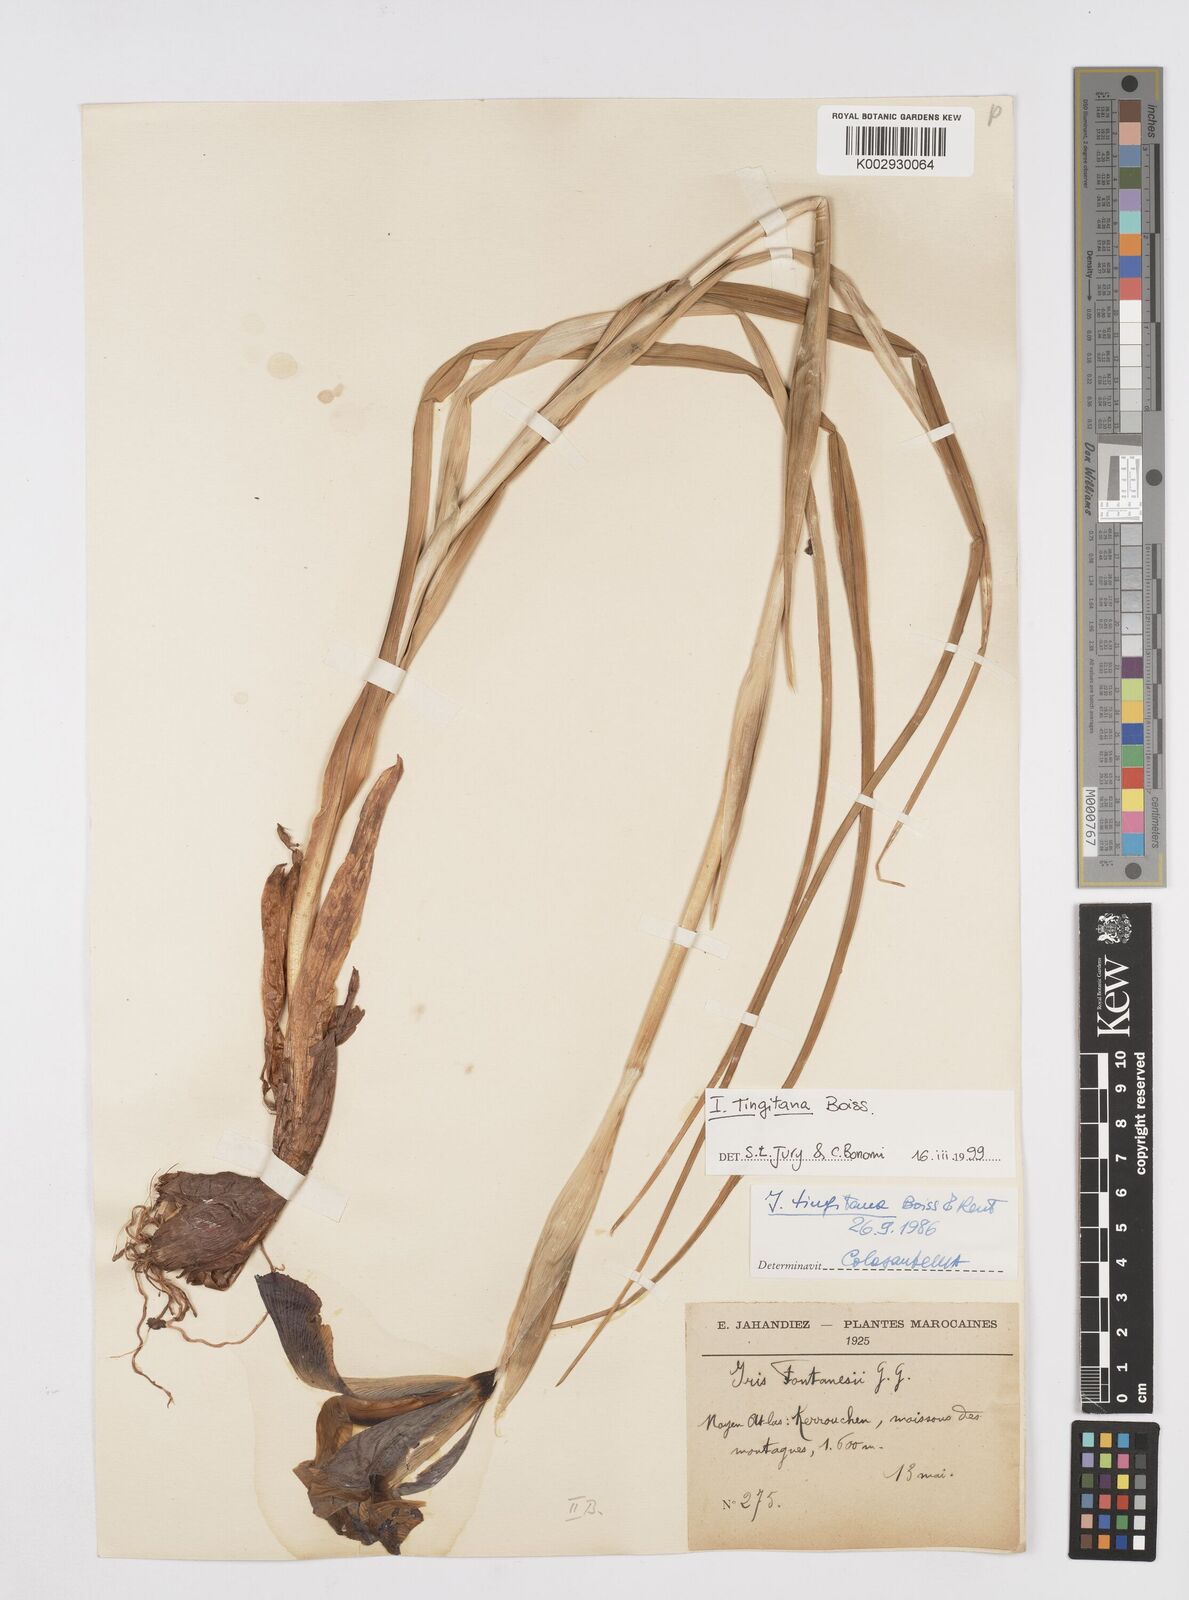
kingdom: Plantae
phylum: Tracheophyta
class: Liliopsida
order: Asparagales
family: Iridaceae
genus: Iris
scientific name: Iris tingitana
